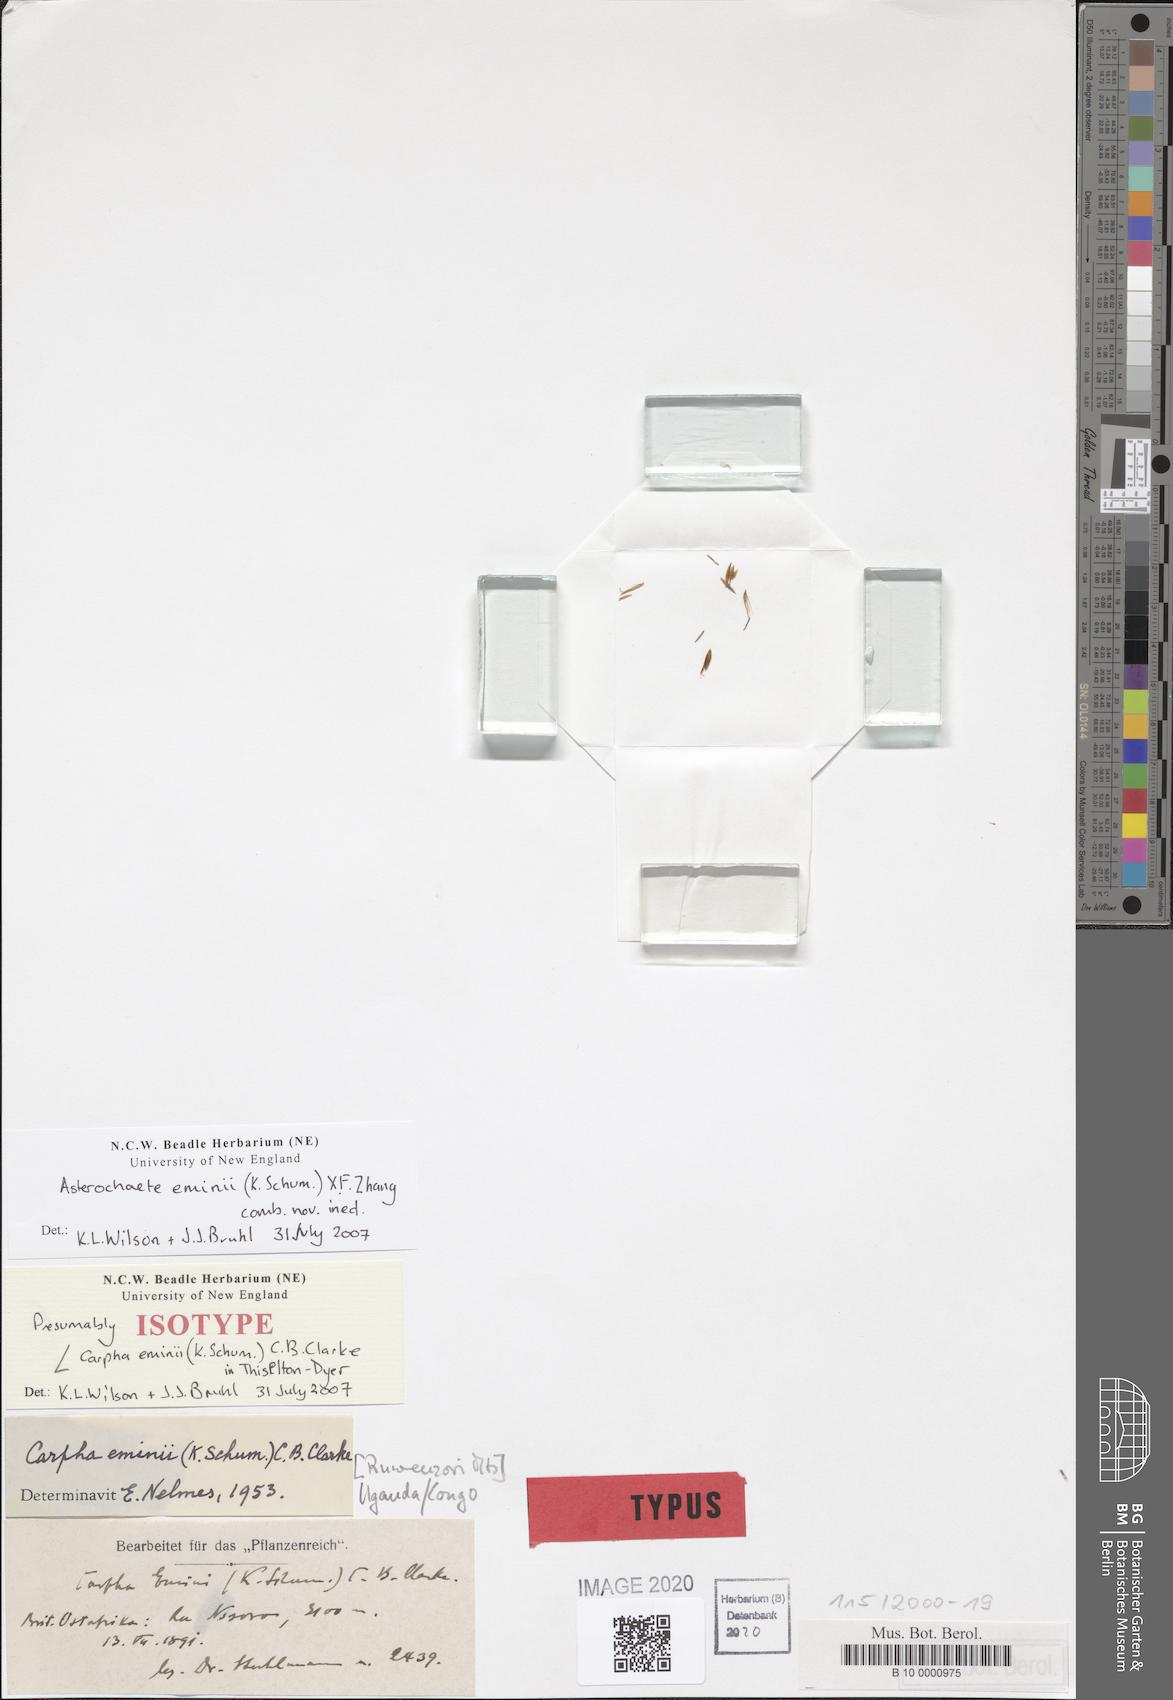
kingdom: Plantae
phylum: Tracheophyta
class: Liliopsida
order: Poales
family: Cyperaceae
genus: Carpha
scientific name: Carpha eminii
